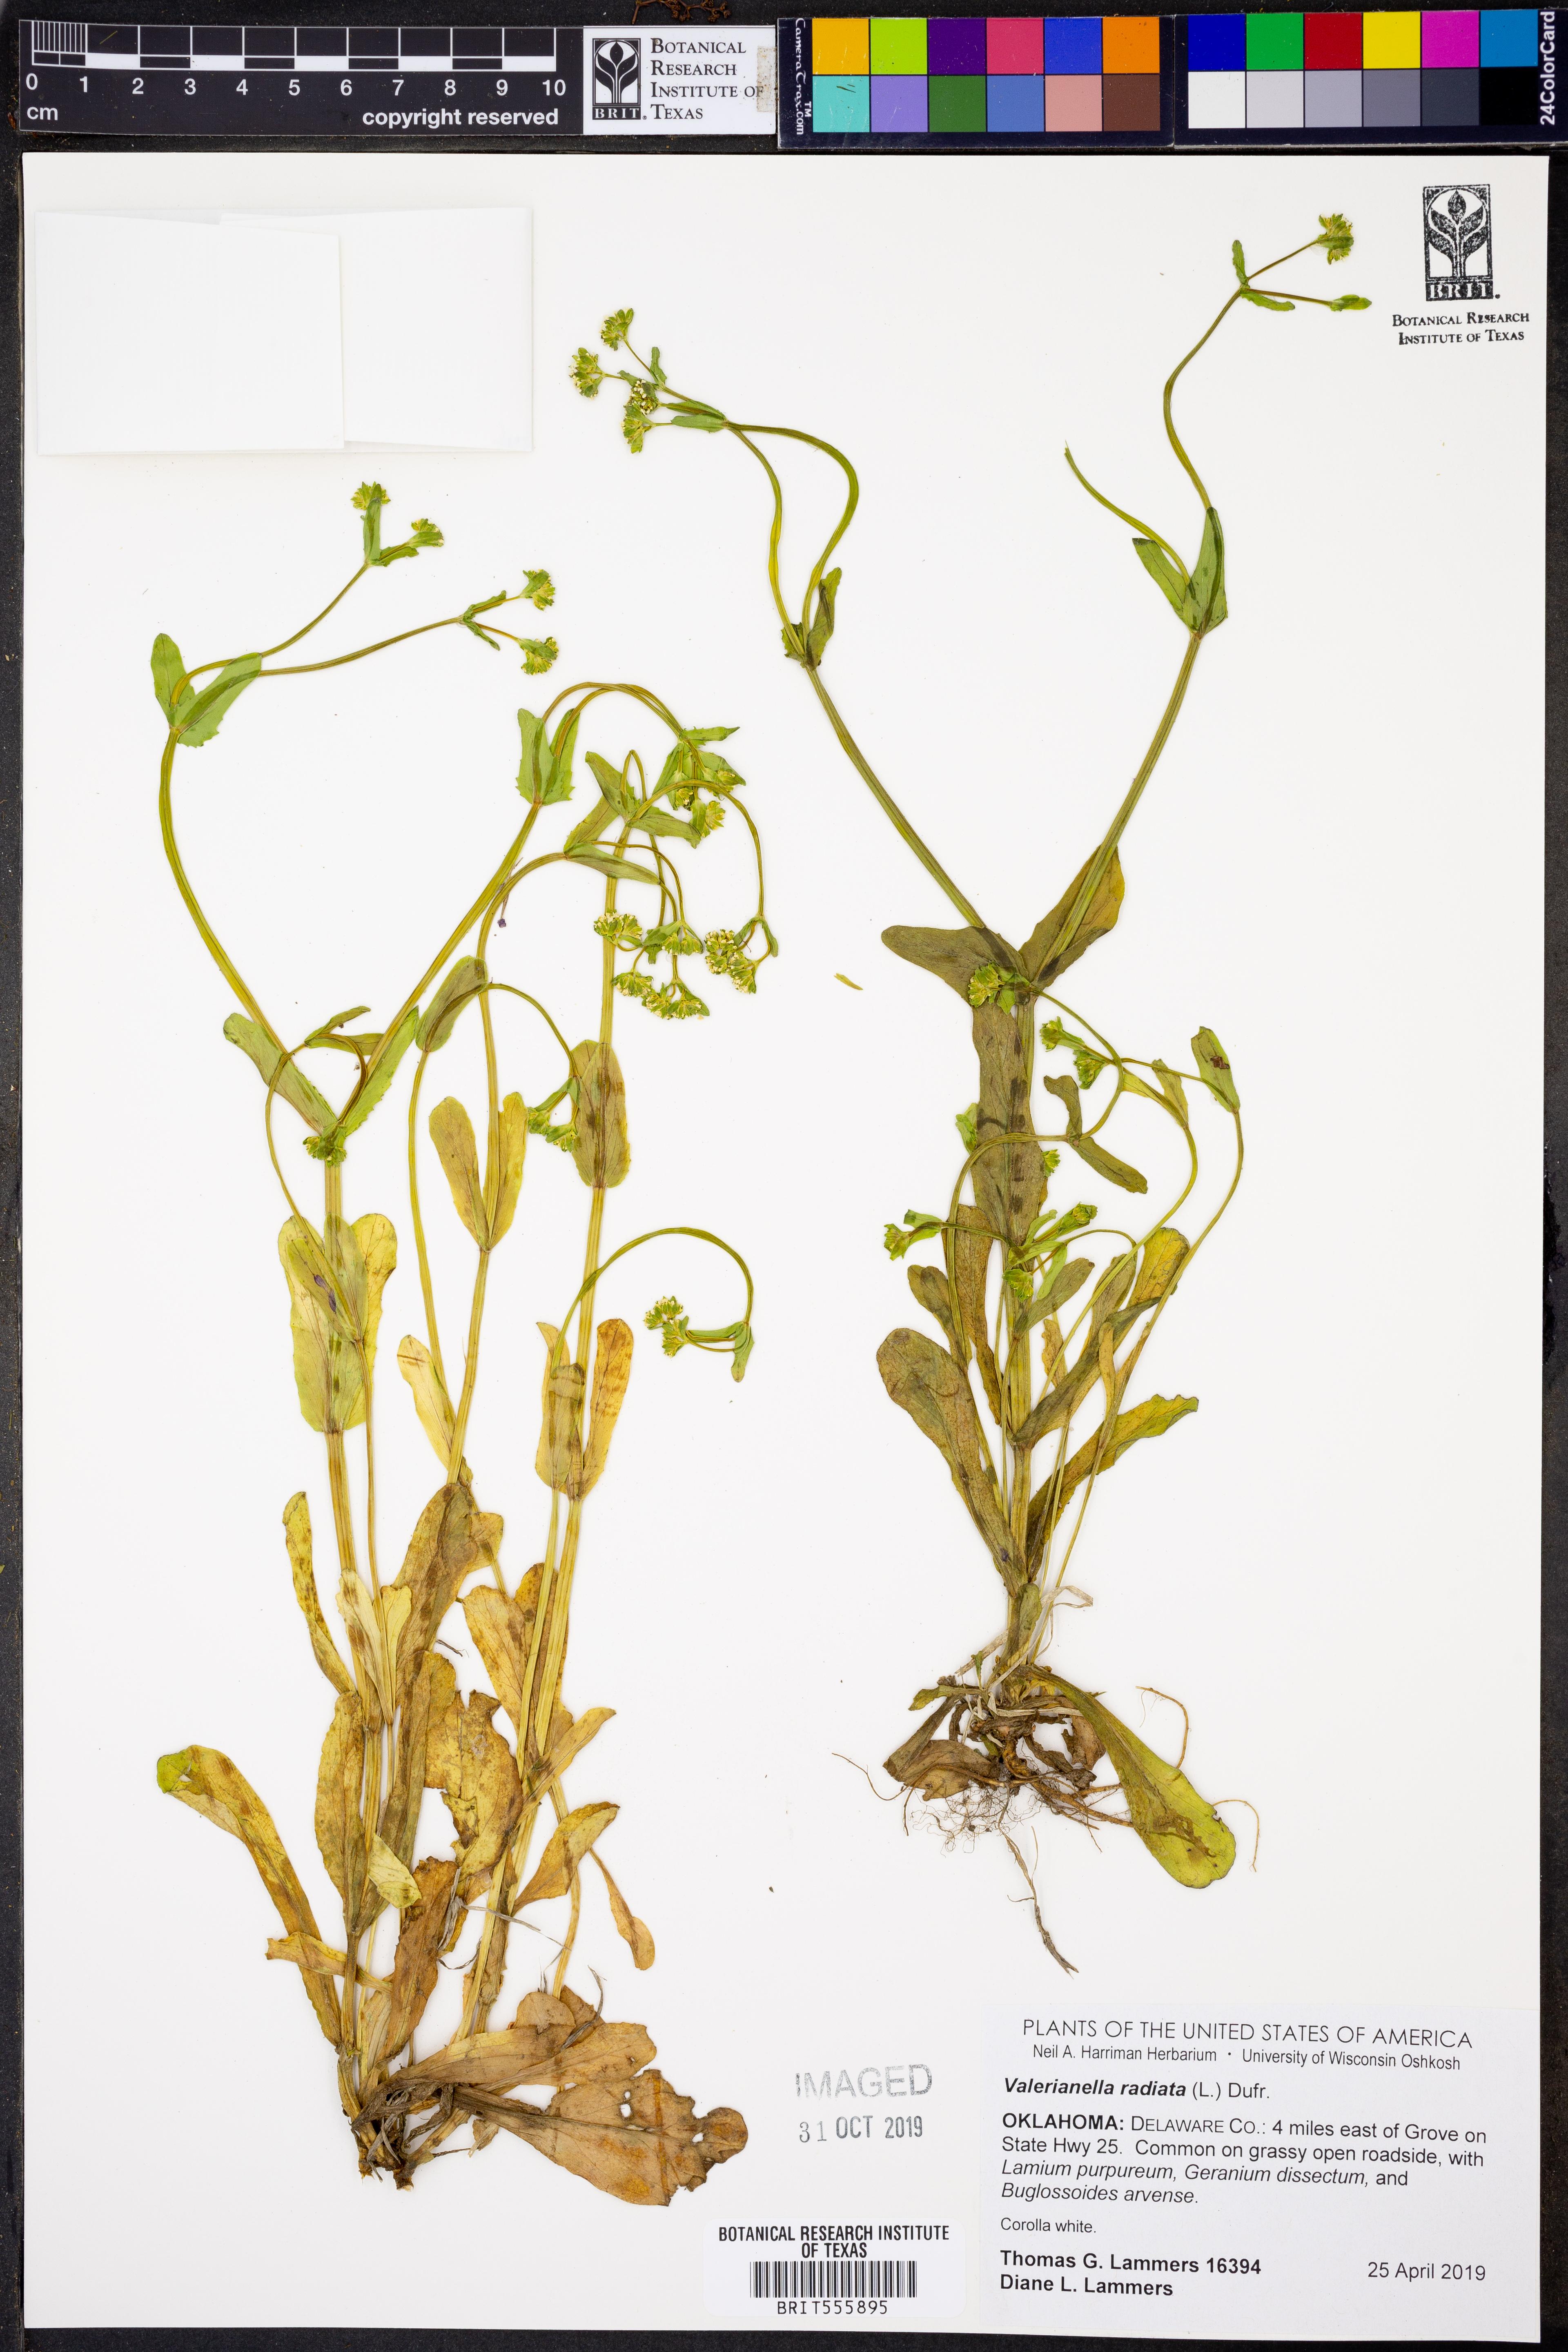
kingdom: Plantae
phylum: Tracheophyta
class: Magnoliopsida
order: Dipsacales
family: Caprifoliaceae
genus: Valerianella
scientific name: Valerianella radiata
